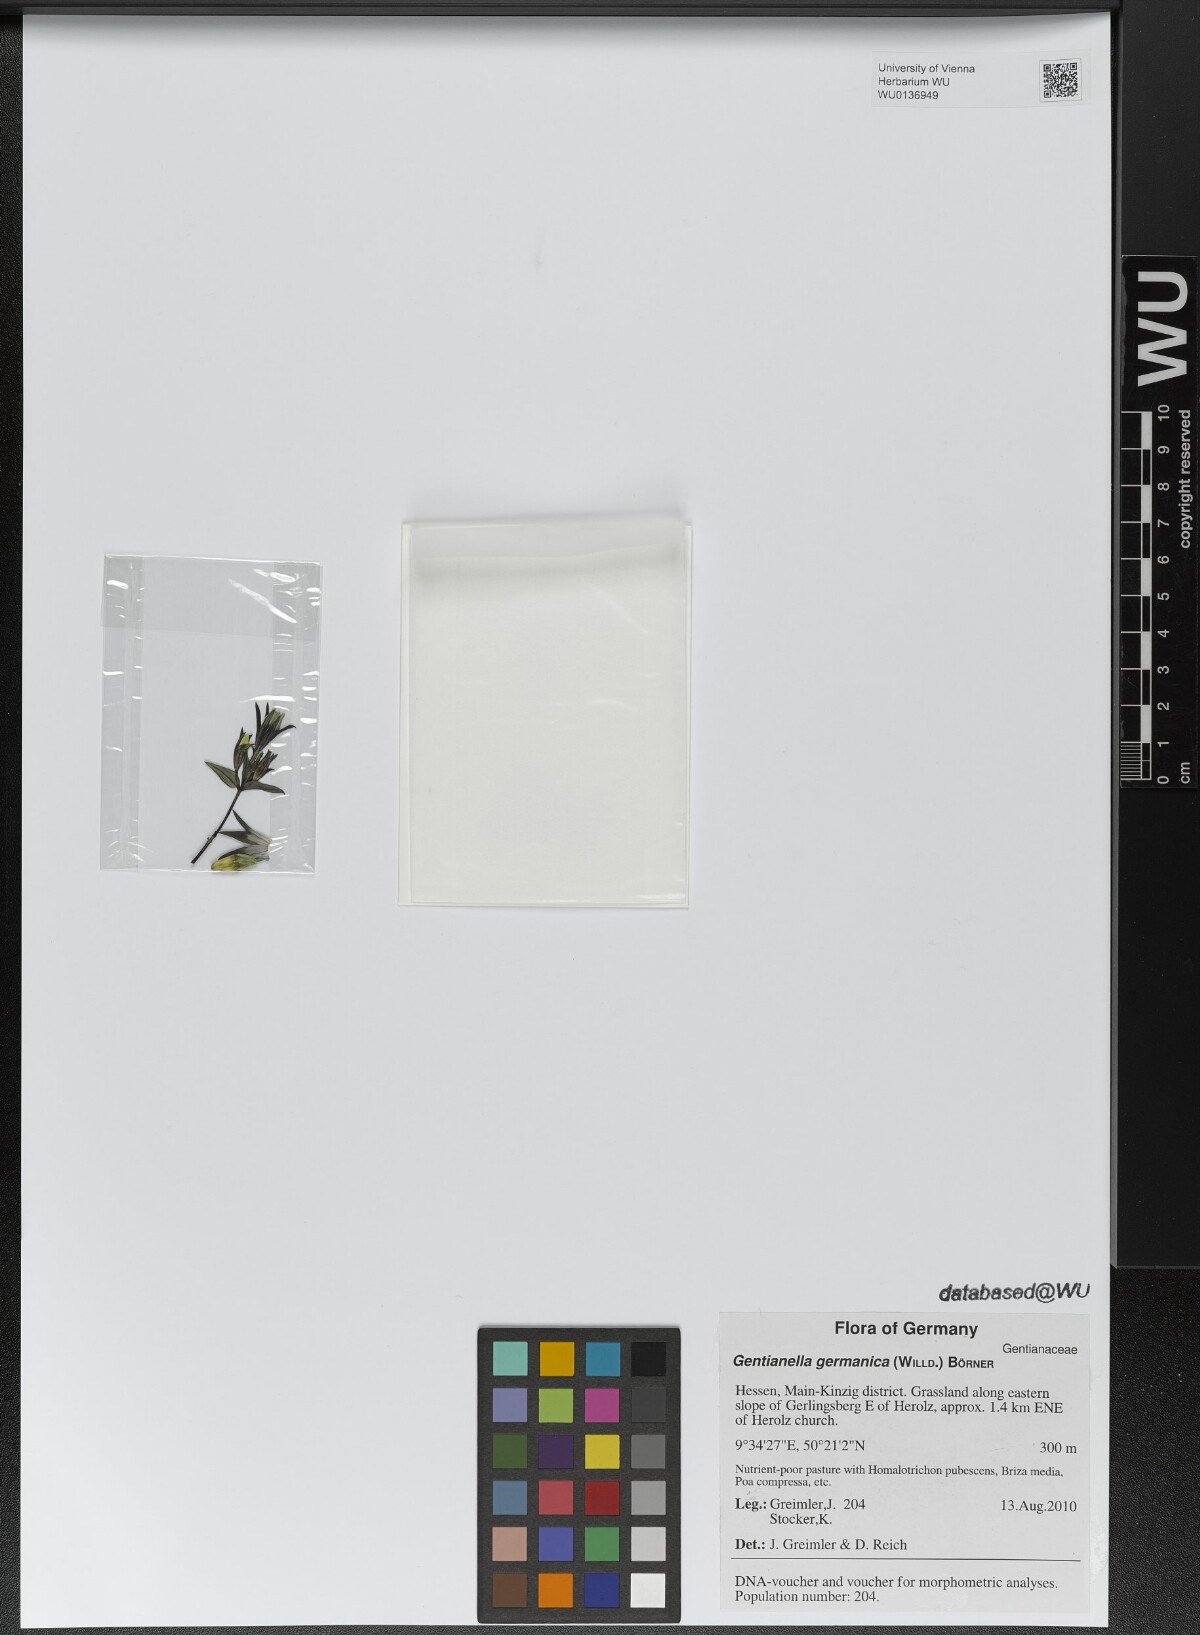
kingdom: Plantae
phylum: Tracheophyta
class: Magnoliopsida
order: Gentianales
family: Gentianaceae
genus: Gentianella
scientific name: Gentianella germanica
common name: Chiltern-gentian
